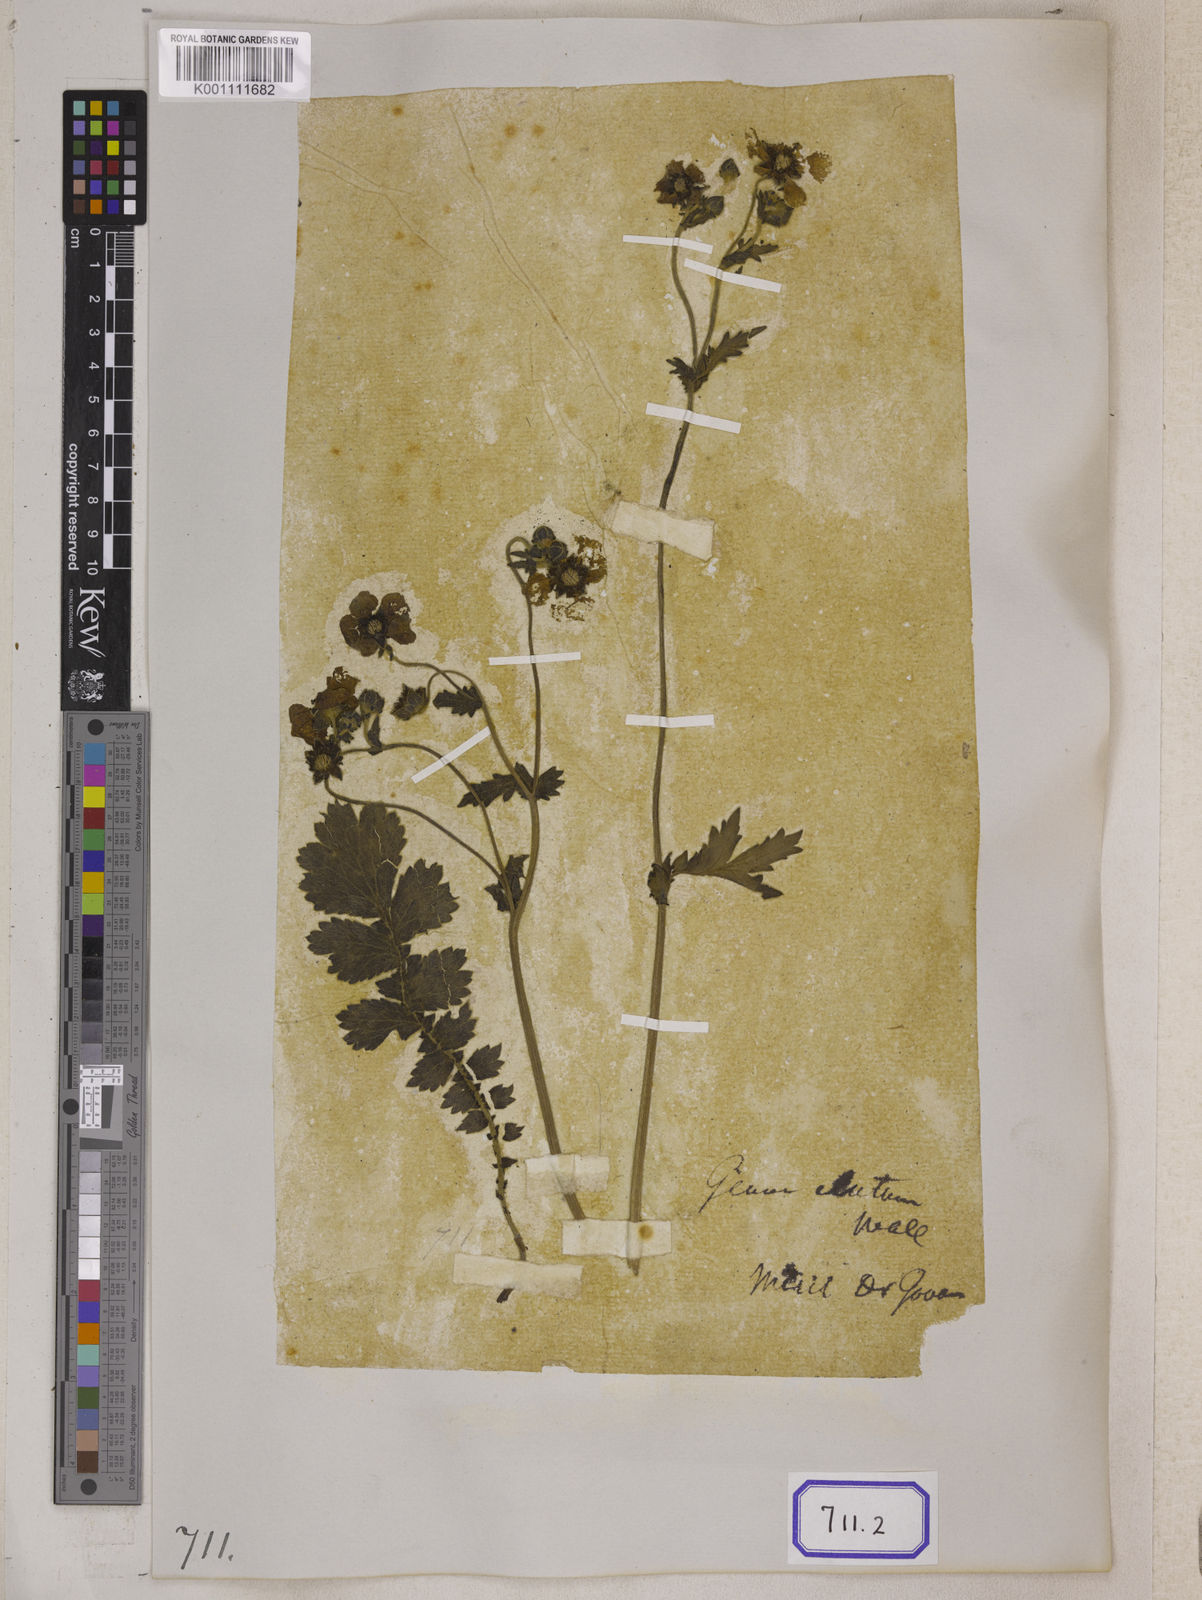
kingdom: Plantae
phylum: Tracheophyta
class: Magnoliopsida
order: Rosales
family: Rosaceae
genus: Geum
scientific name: Geum
